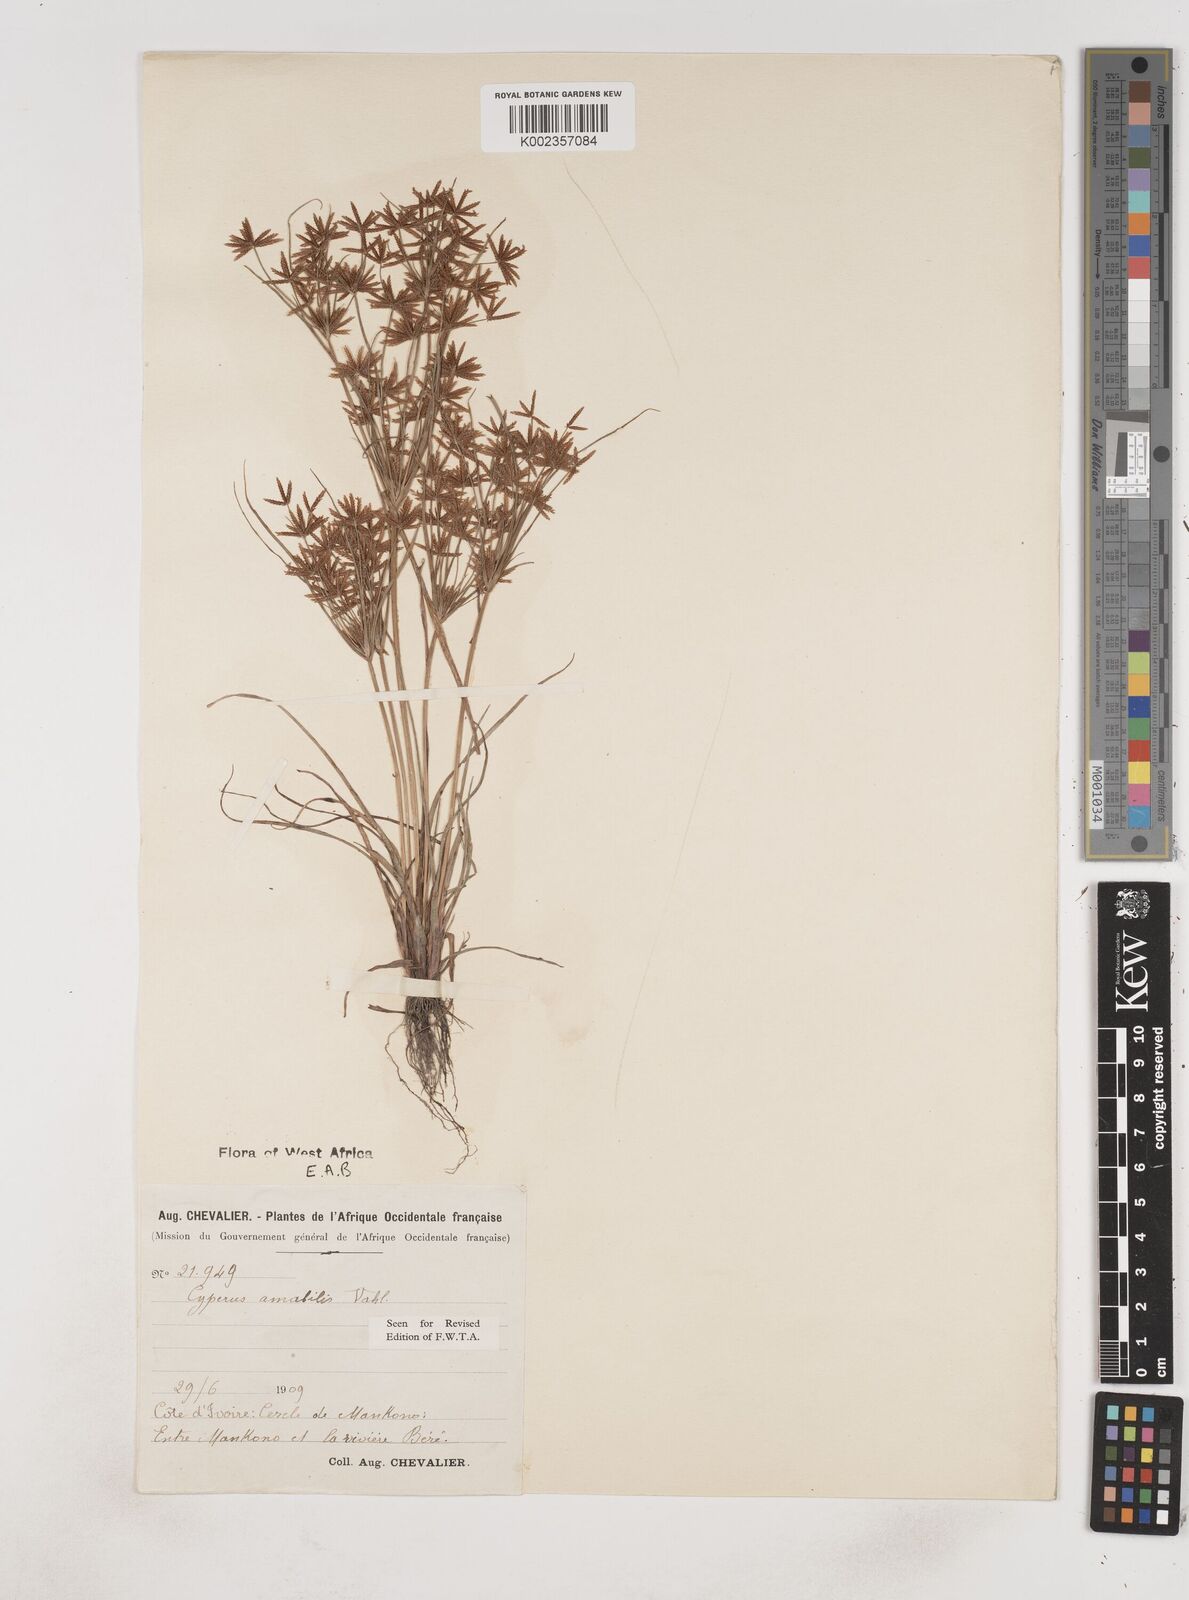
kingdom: Plantae
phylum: Tracheophyta
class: Liliopsida
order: Poales
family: Cyperaceae
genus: Cyperus
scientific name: Cyperus amabilis
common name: Foothill flat sedge
